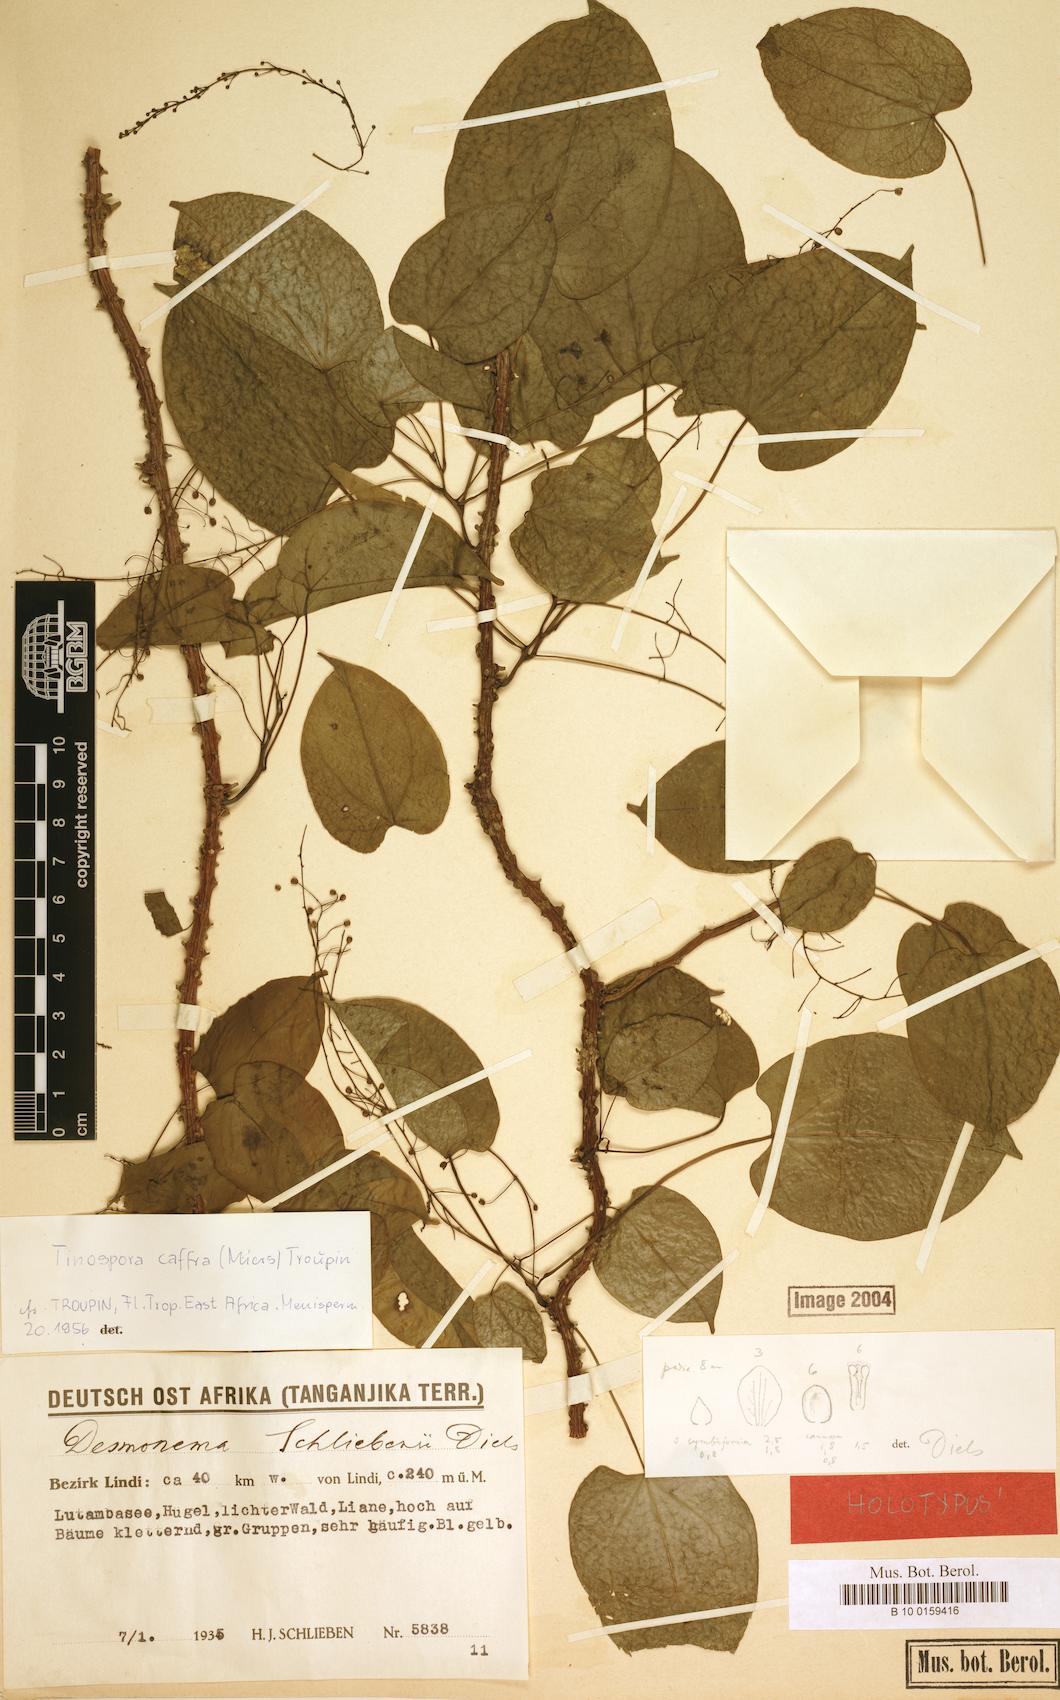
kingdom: Plantae
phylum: Tracheophyta
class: Magnoliopsida
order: Ranunculales
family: Menispermaceae
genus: Tinospora
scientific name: Tinospora caffra
